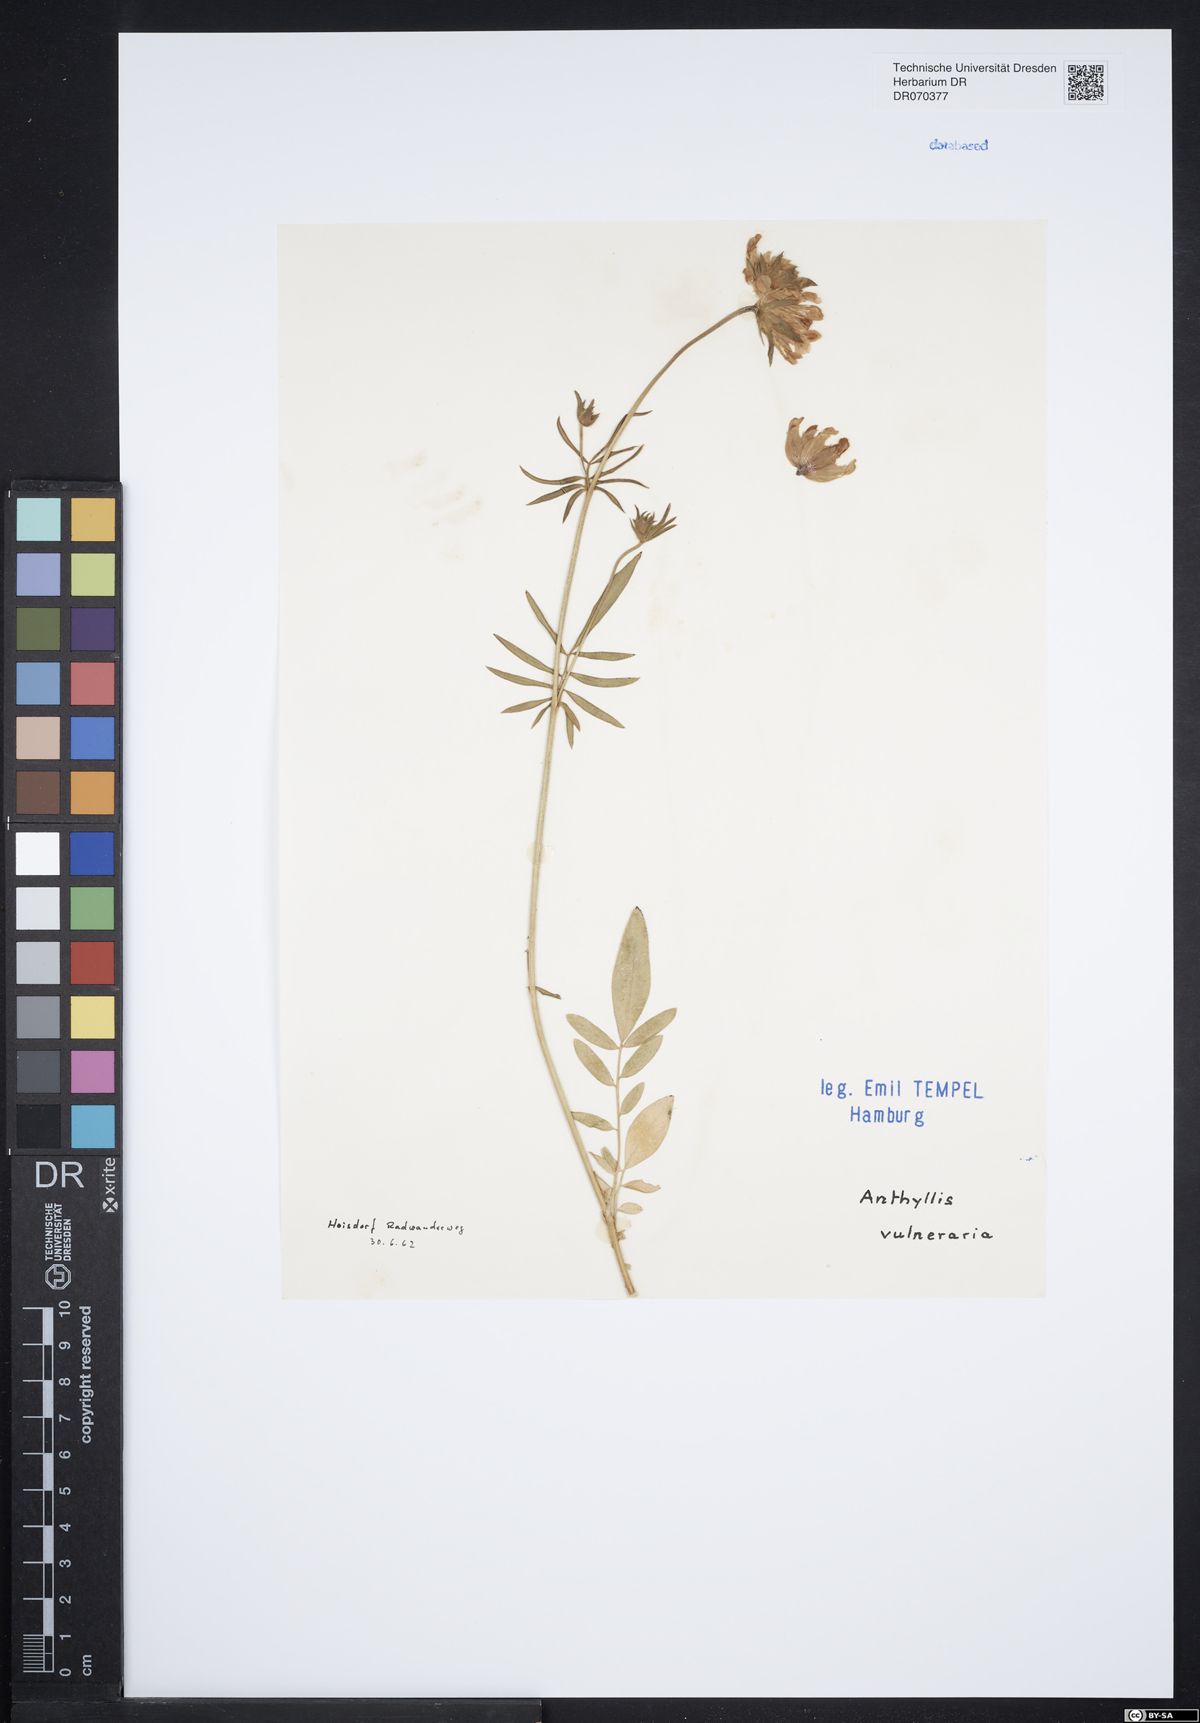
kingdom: Plantae
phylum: Tracheophyta
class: Magnoliopsida
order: Fabales
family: Fabaceae
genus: Anthyllis
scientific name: Anthyllis vulneraria
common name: Kidney vetch
